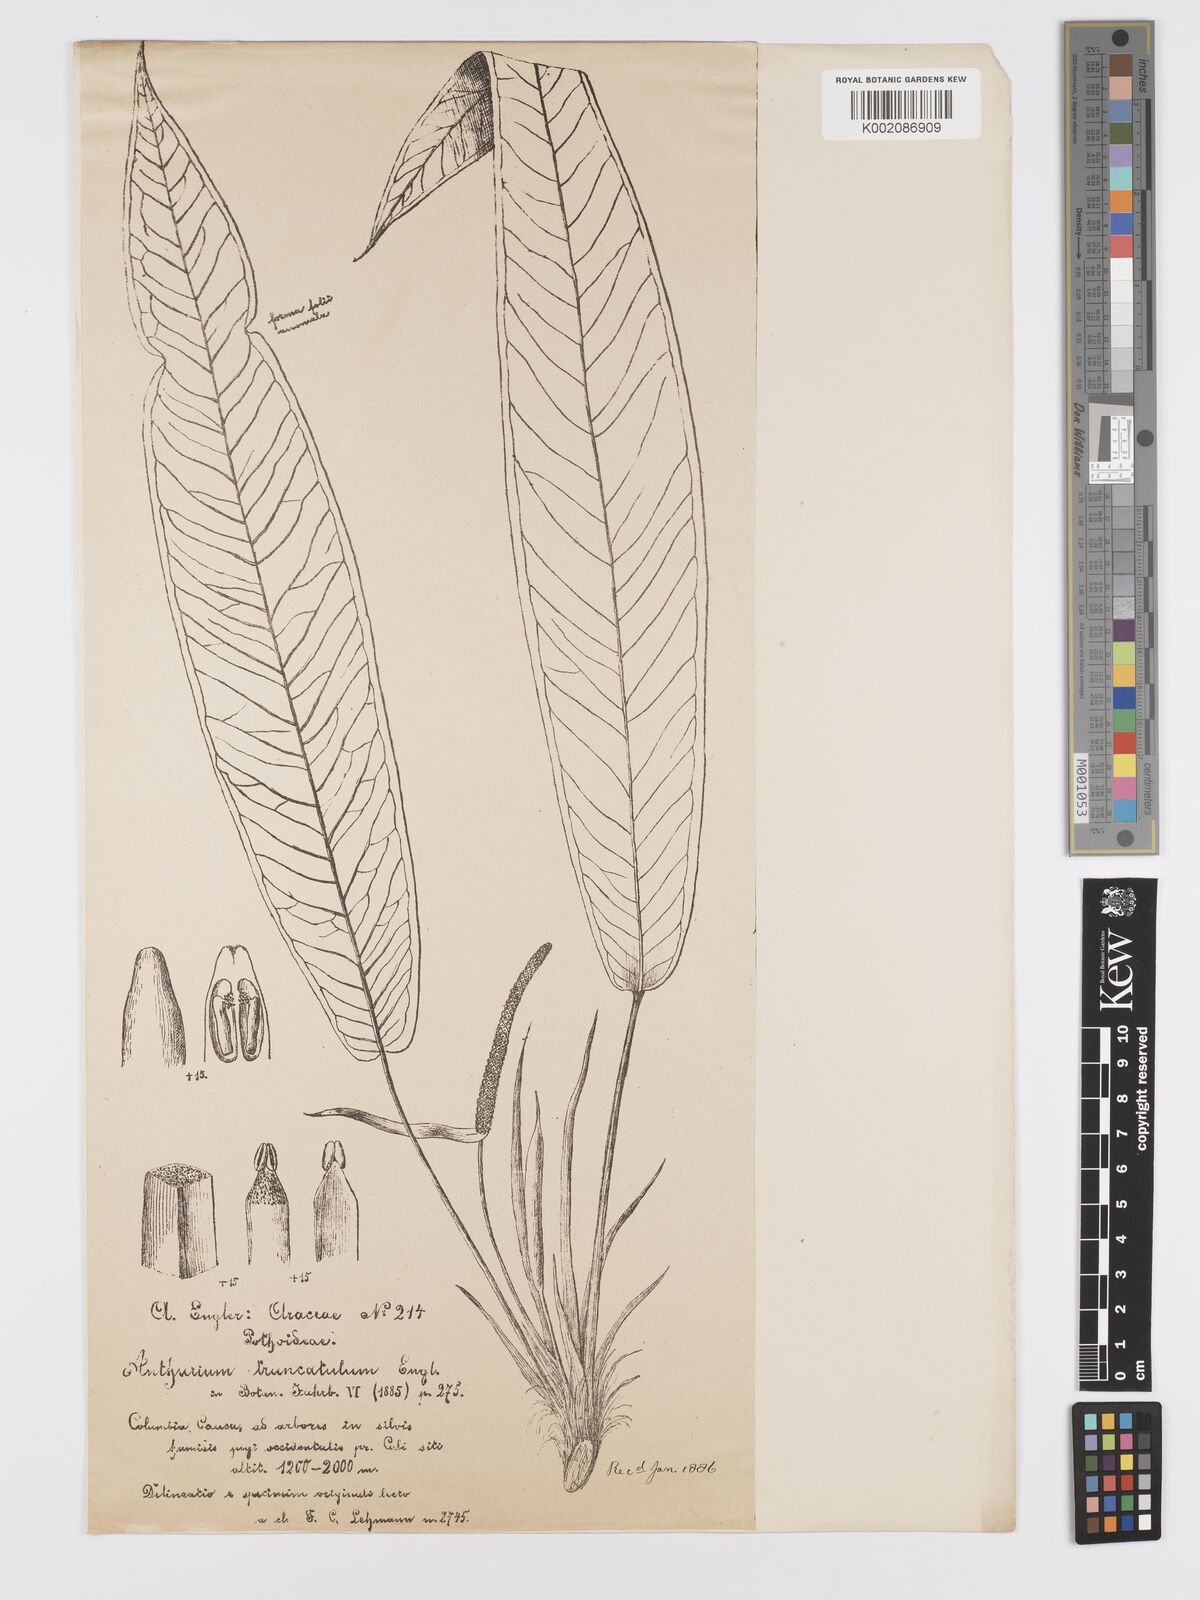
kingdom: Plantae
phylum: Tracheophyta
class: Liliopsida
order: Alismatales
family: Araceae
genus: Anthurium
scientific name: Anthurium truncatulum
